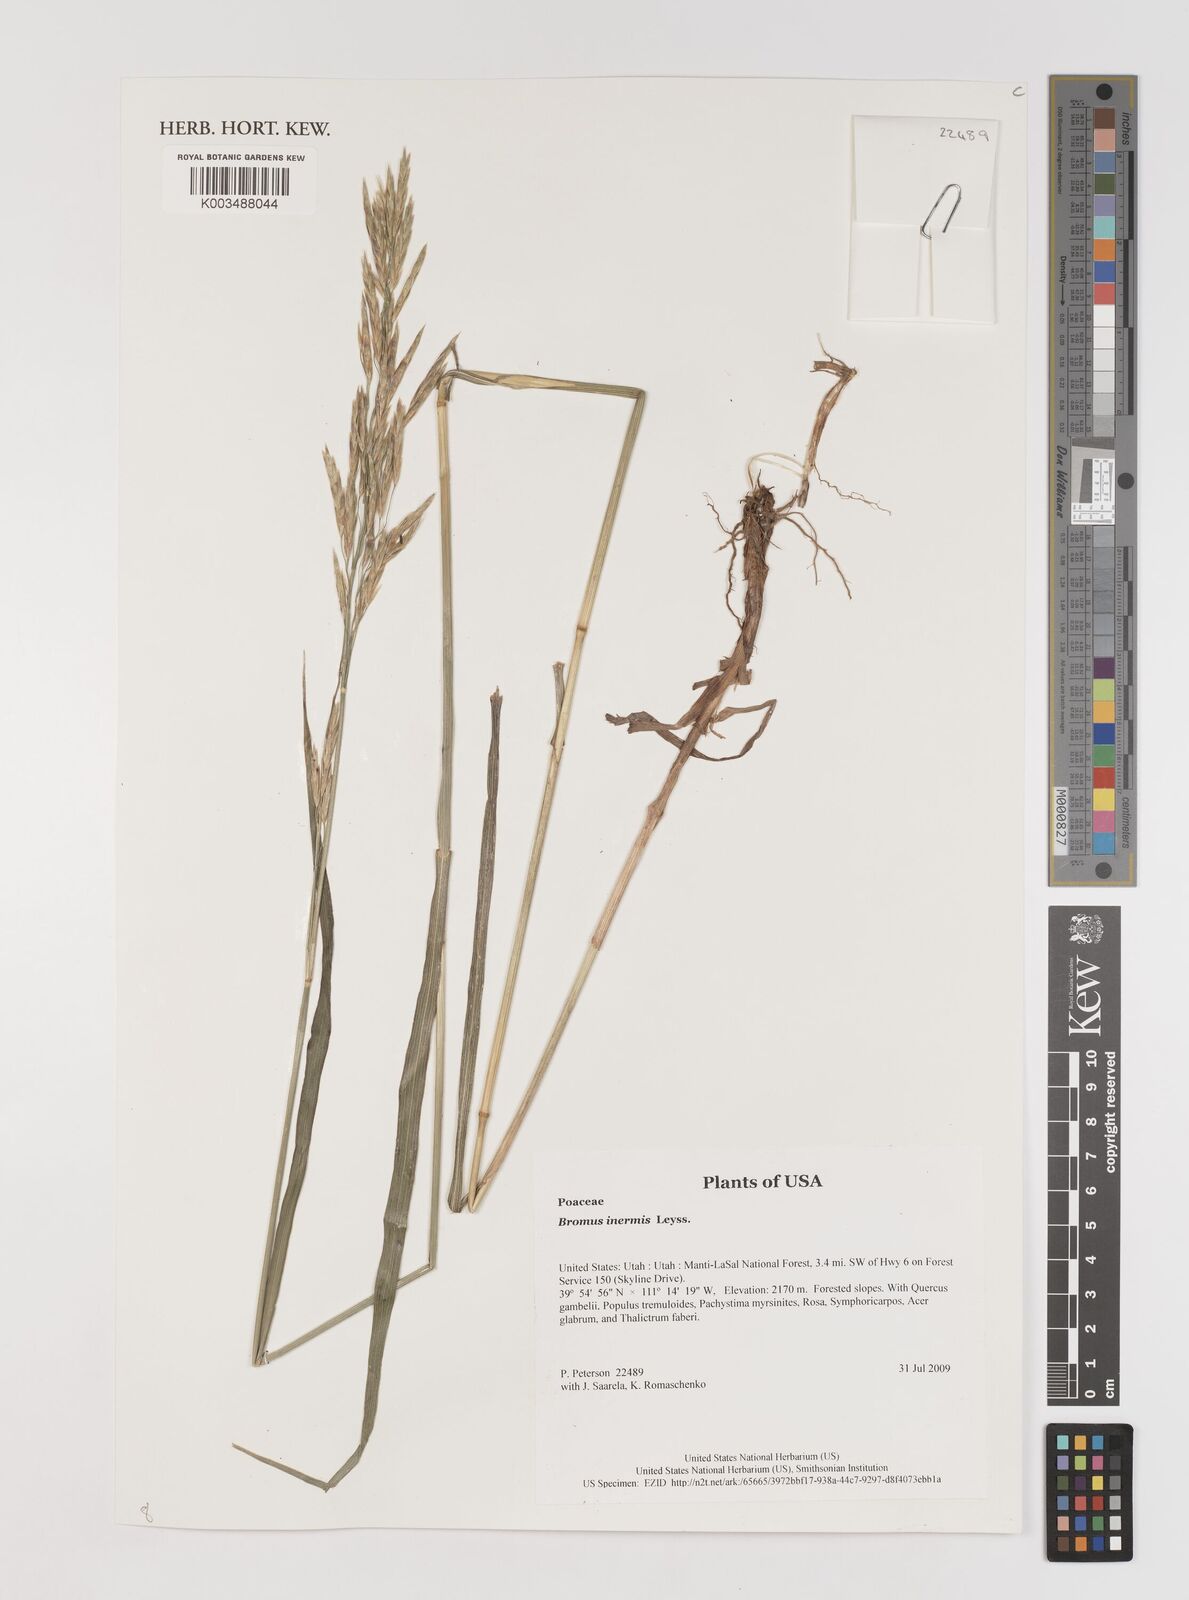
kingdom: Plantae
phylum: Tracheophyta
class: Liliopsida
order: Poales
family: Poaceae
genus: Bromus
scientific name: Bromus inermis
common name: Smooth brome
